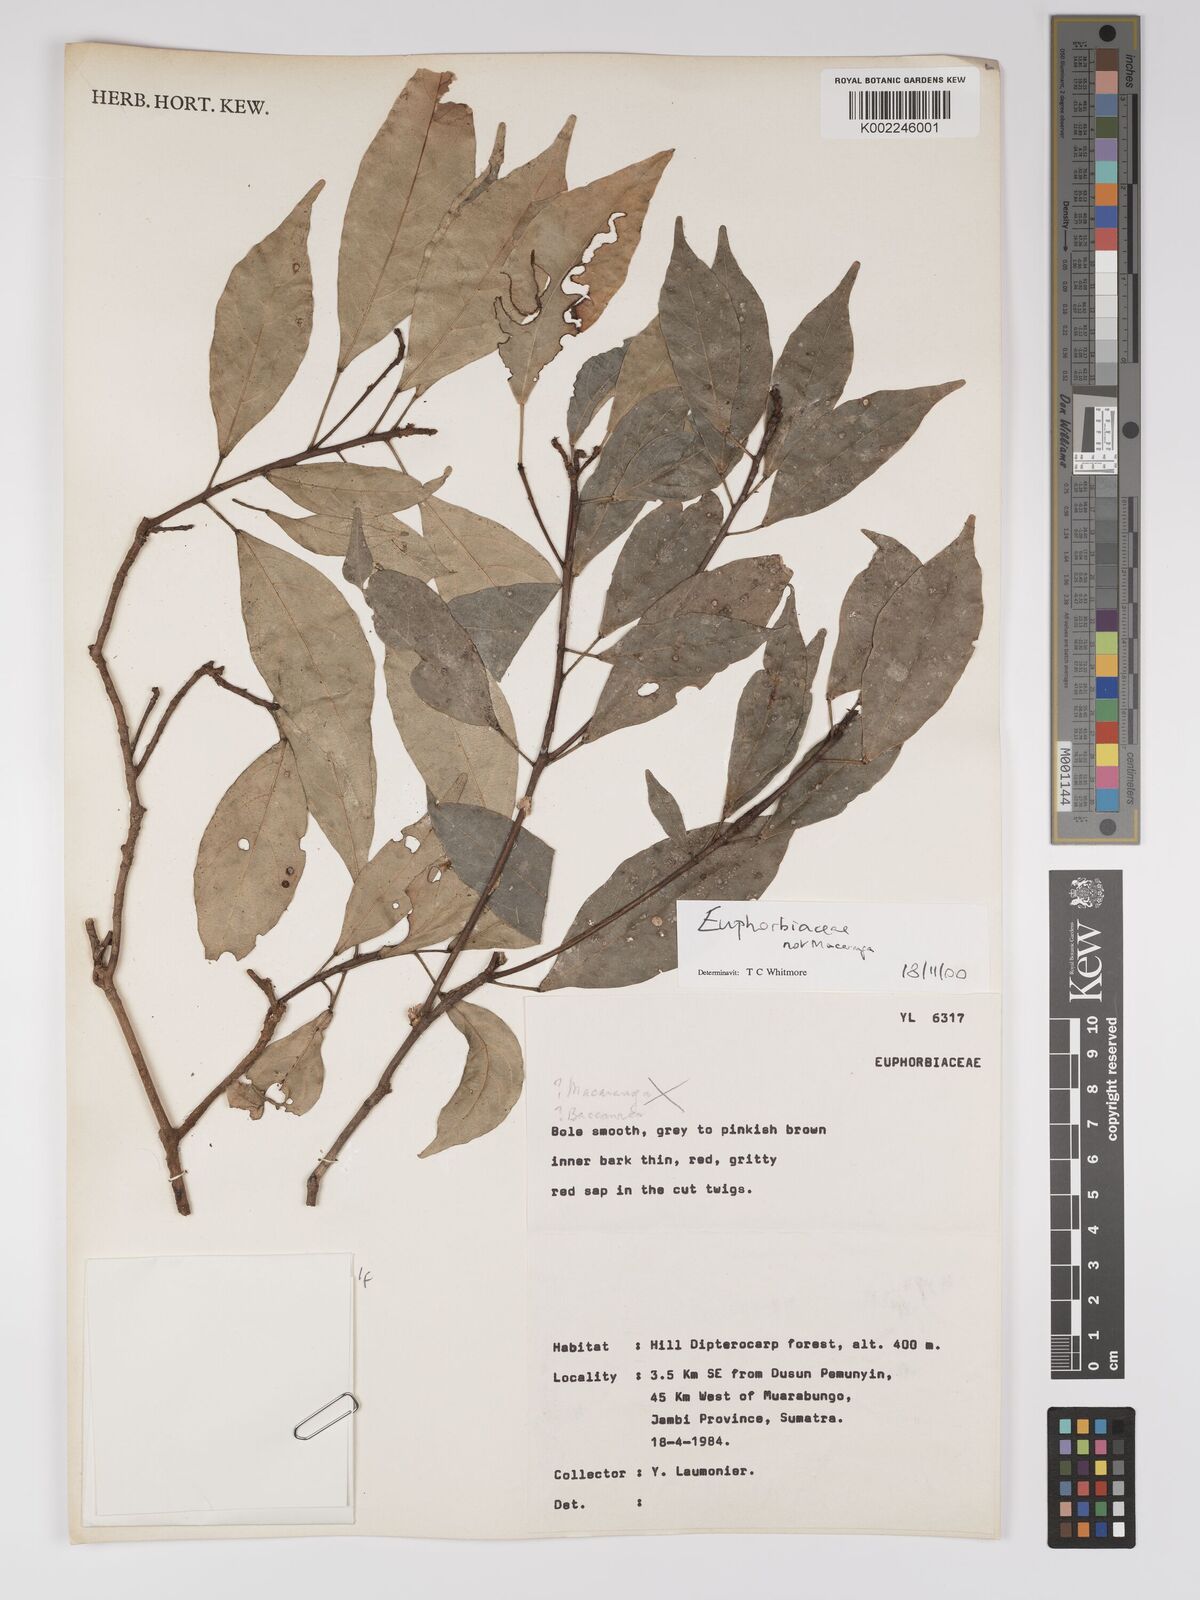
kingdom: Plantae
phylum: Tracheophyta
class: Magnoliopsida
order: Malpighiales
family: Euphorbiaceae
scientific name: Euphorbiaceae
